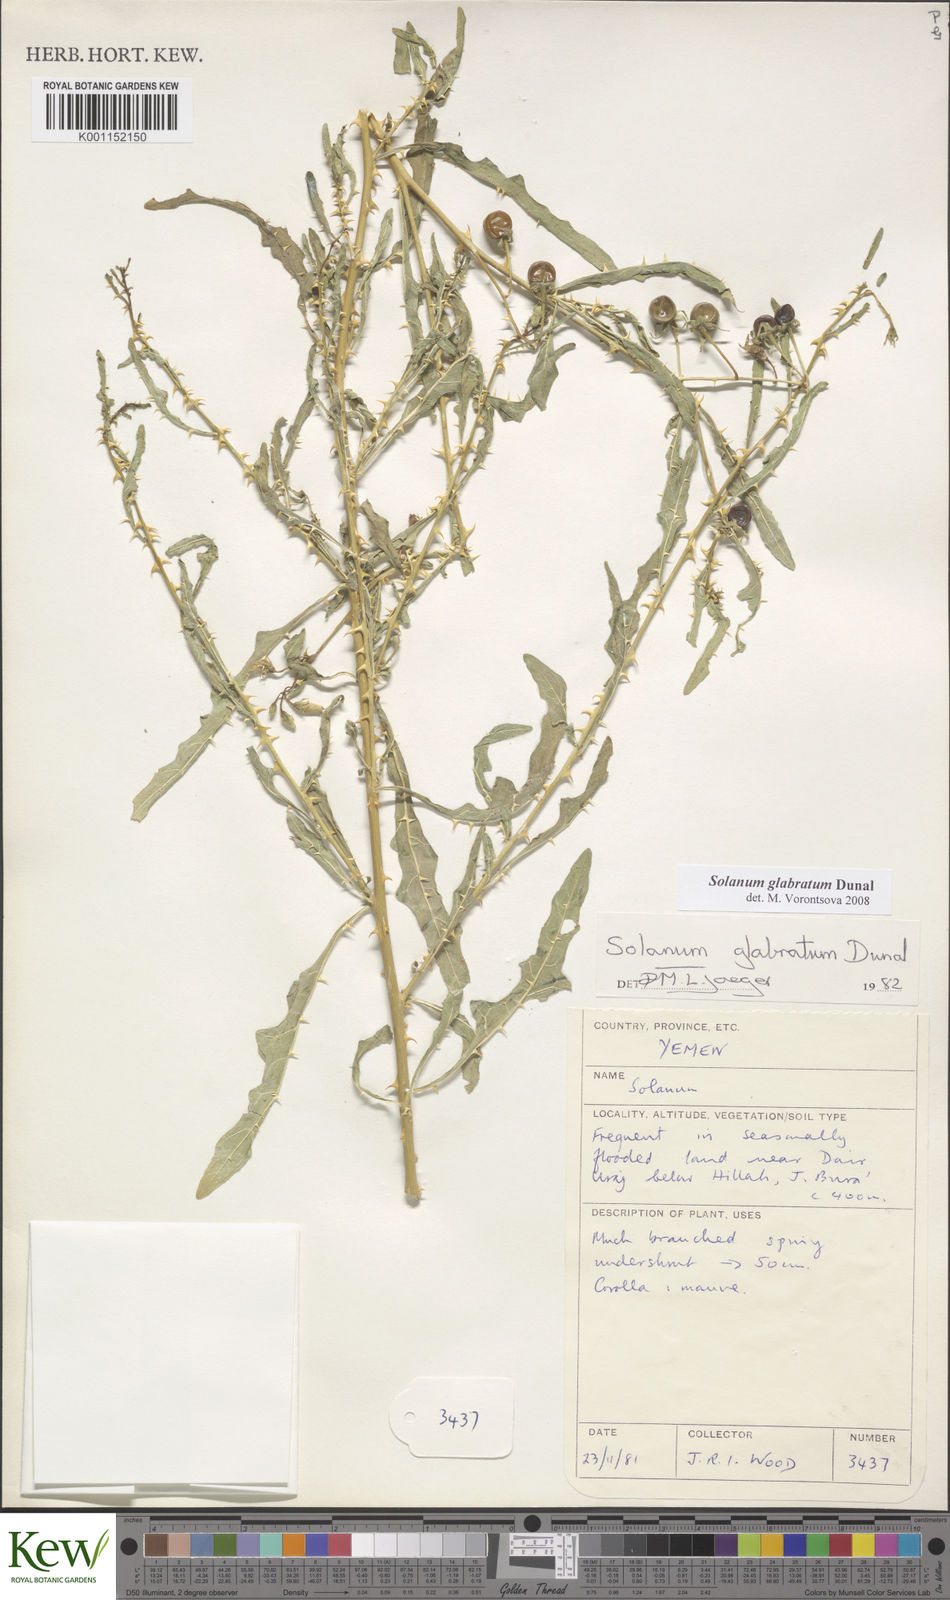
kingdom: Plantae
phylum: Tracheophyta
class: Magnoliopsida
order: Solanales
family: Solanaceae
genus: Solanum
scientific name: Solanum glabratum
